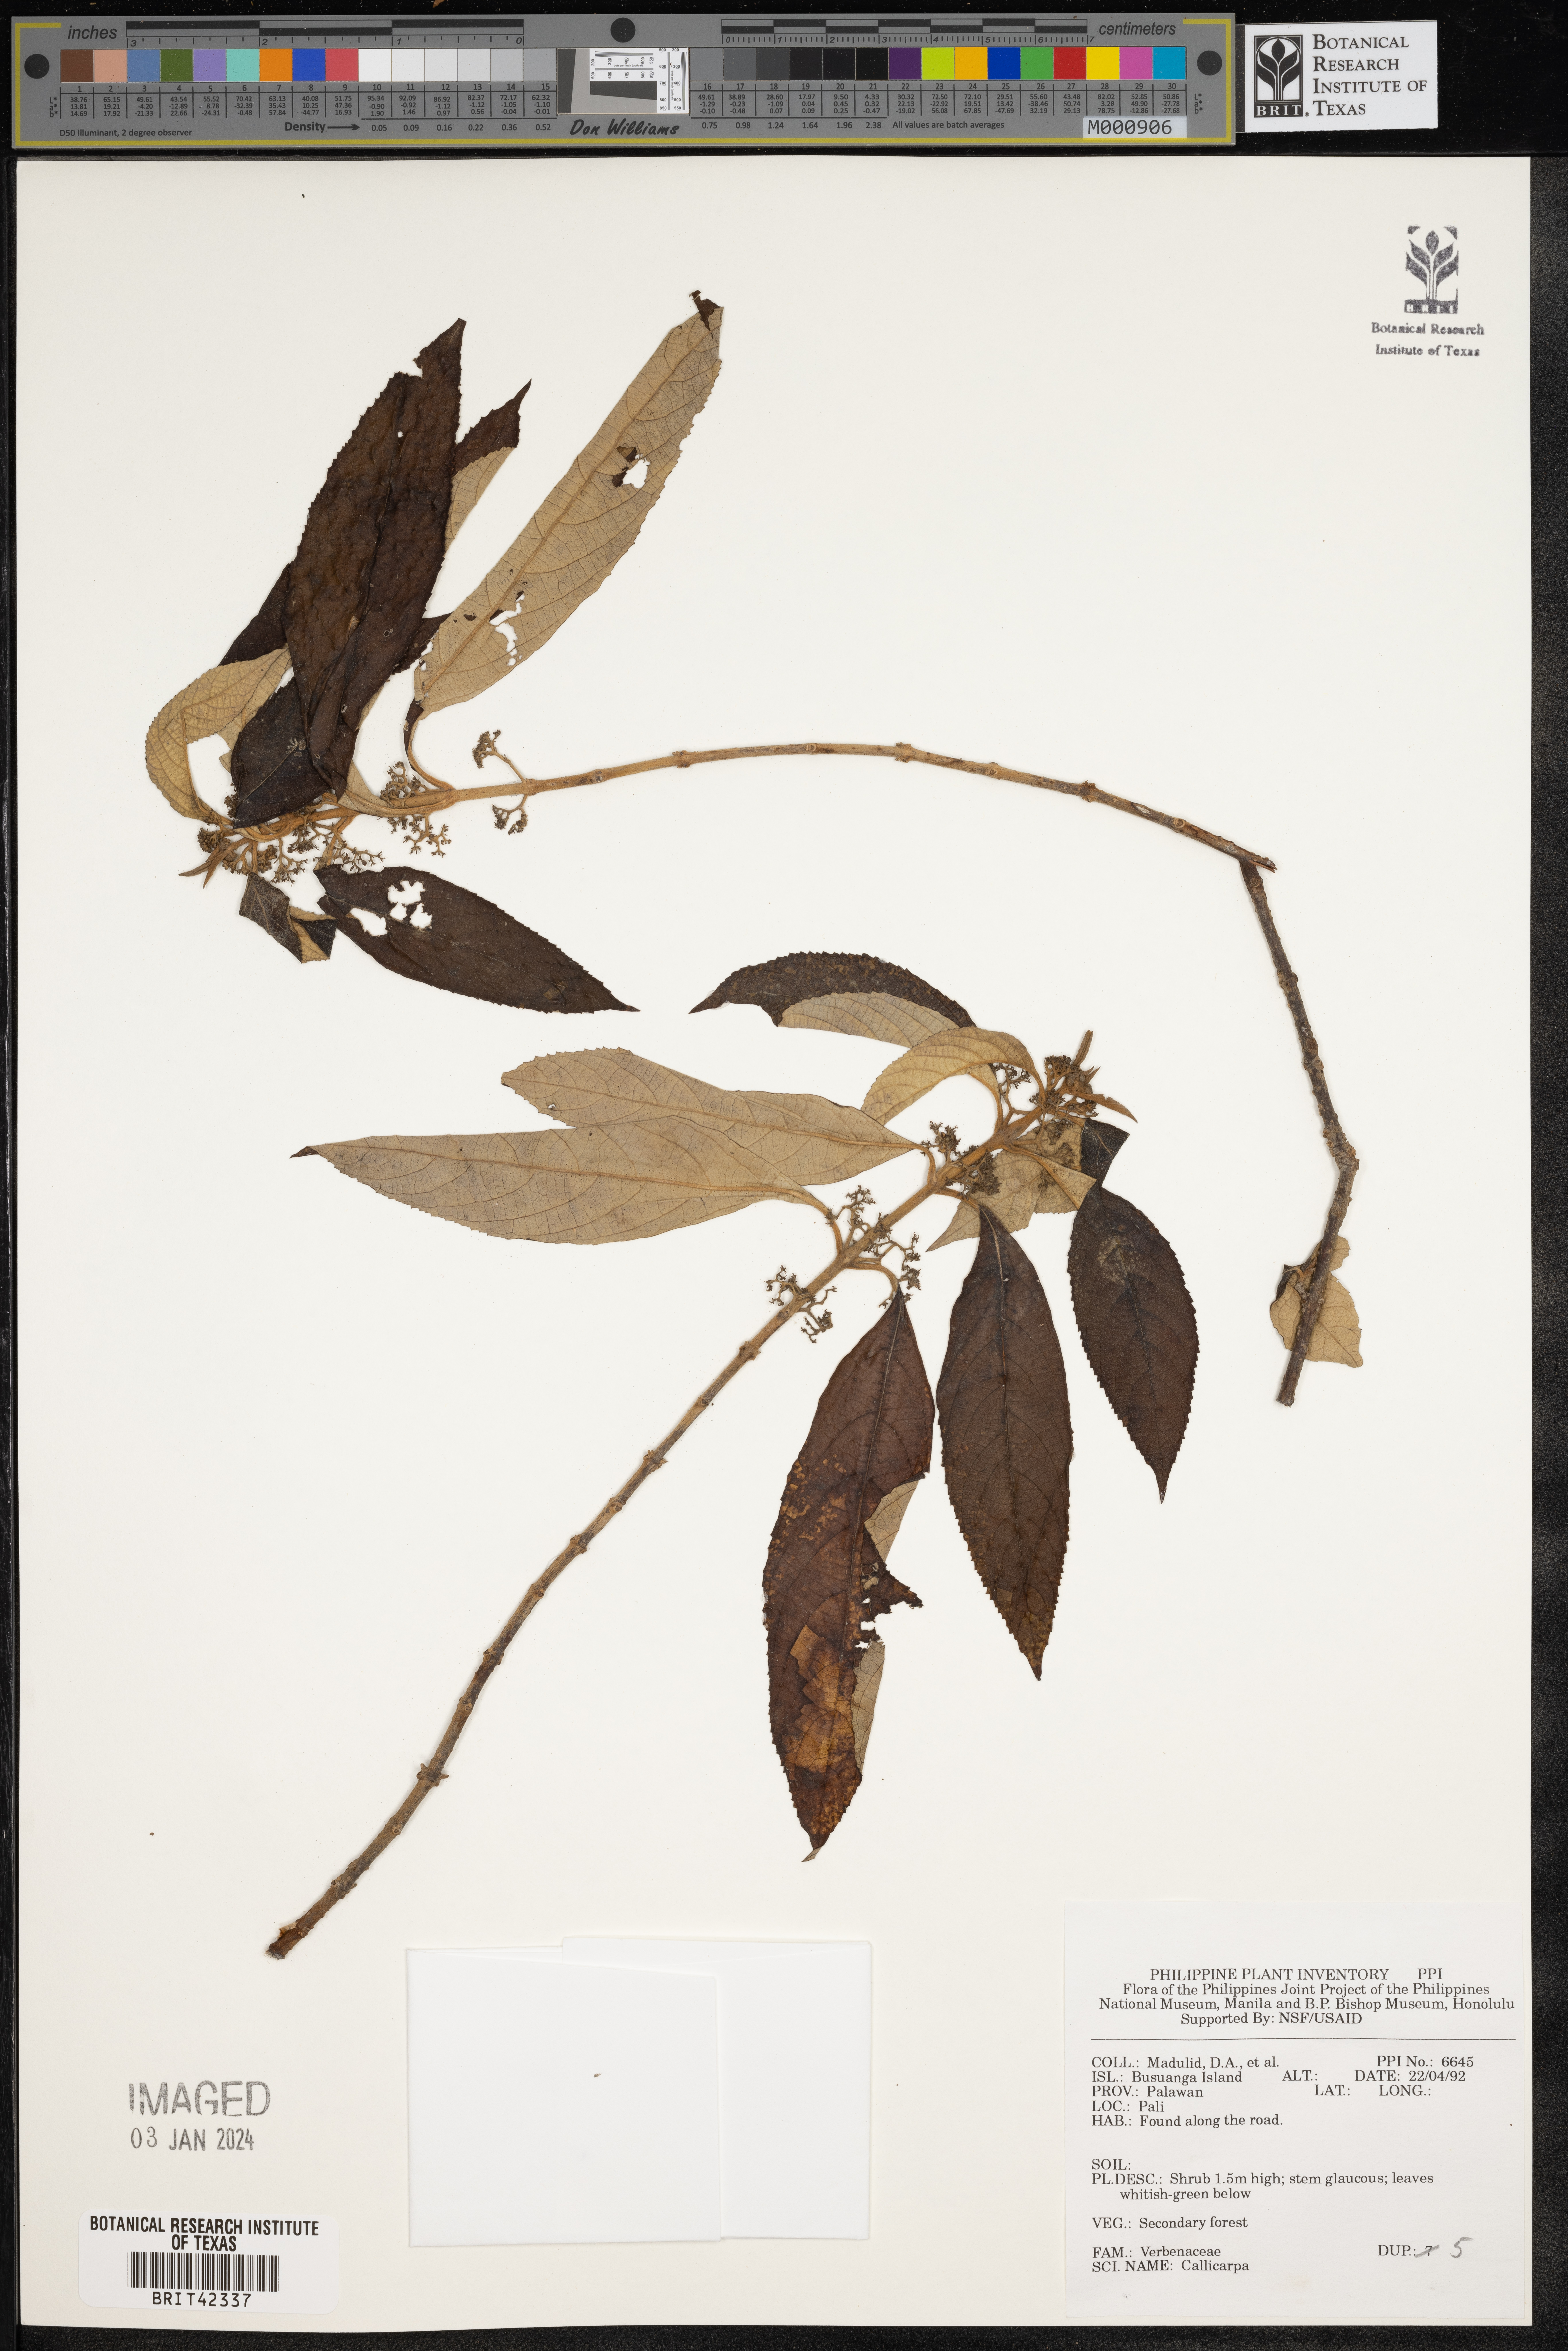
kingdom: Plantae
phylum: Tracheophyta
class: Magnoliopsida
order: Lamiales
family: Lamiaceae
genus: Callicarpa
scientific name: Callicarpa
